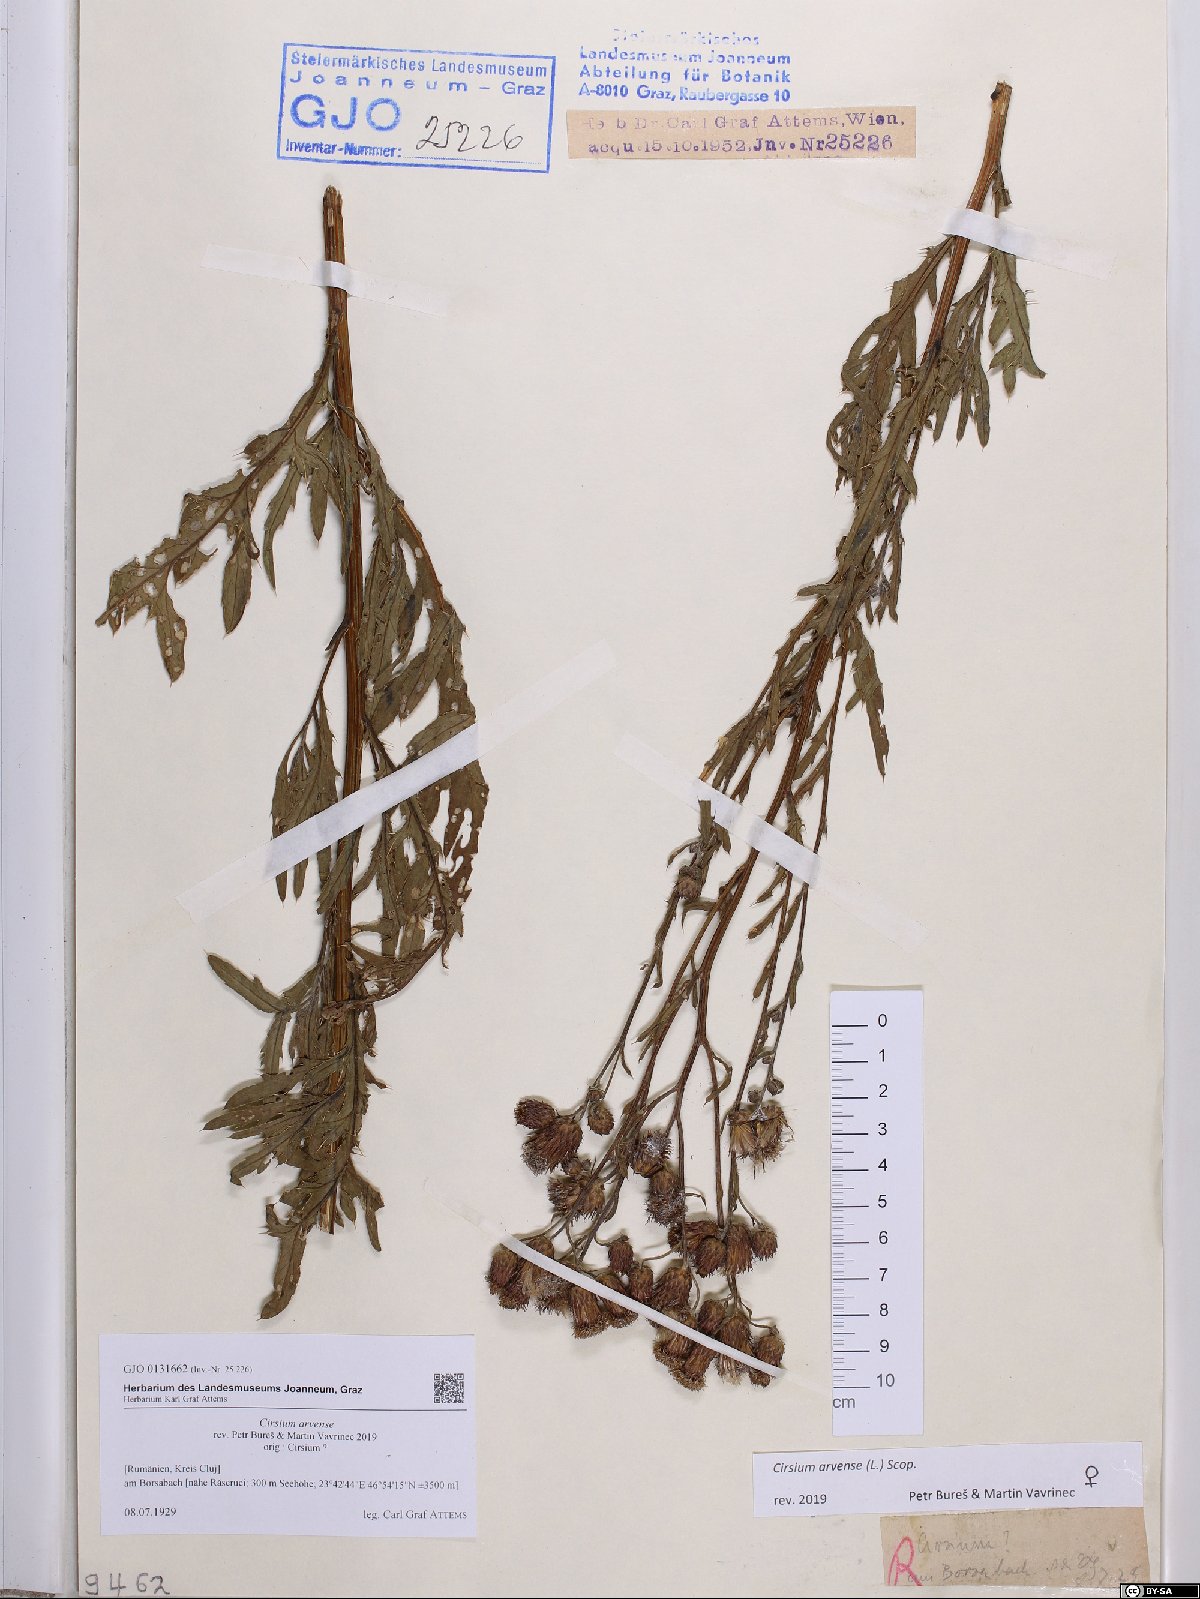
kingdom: Plantae
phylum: Tracheophyta
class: Magnoliopsida
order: Asterales
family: Asteraceae
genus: Cirsium
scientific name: Cirsium arvense
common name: Creeping thistle
